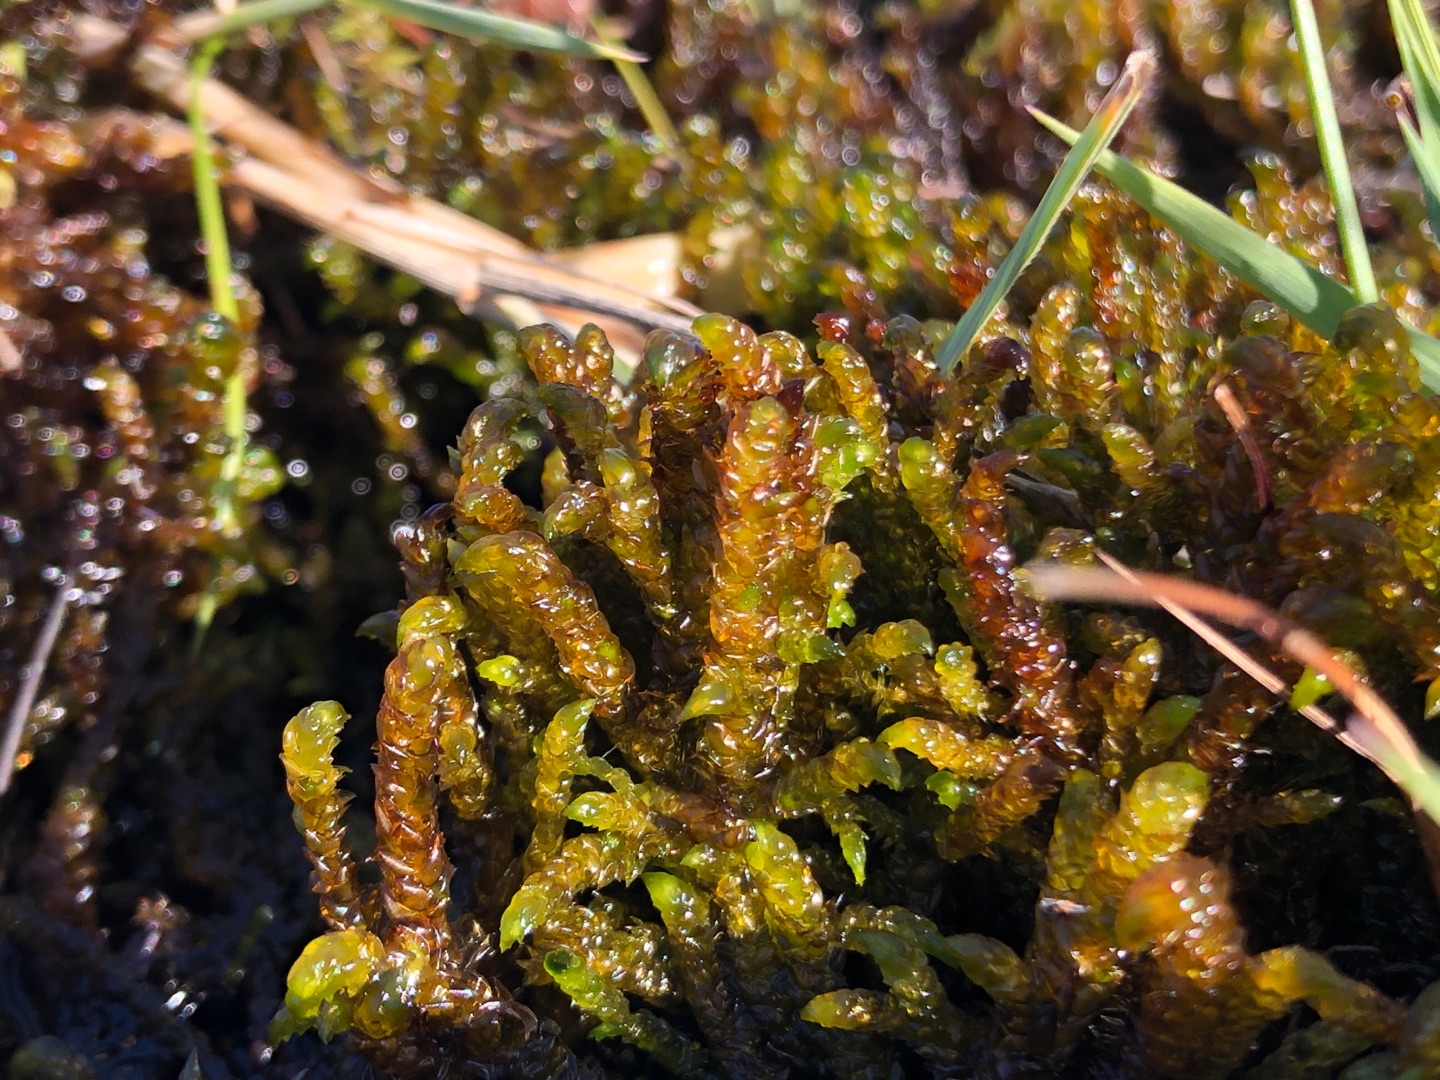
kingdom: Plantae
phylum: Bryophyta
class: Bryopsida
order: Hypnales
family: Scorpidiaceae
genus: Scorpidium
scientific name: Scorpidium scorpioides
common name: Stor skorpionmos
